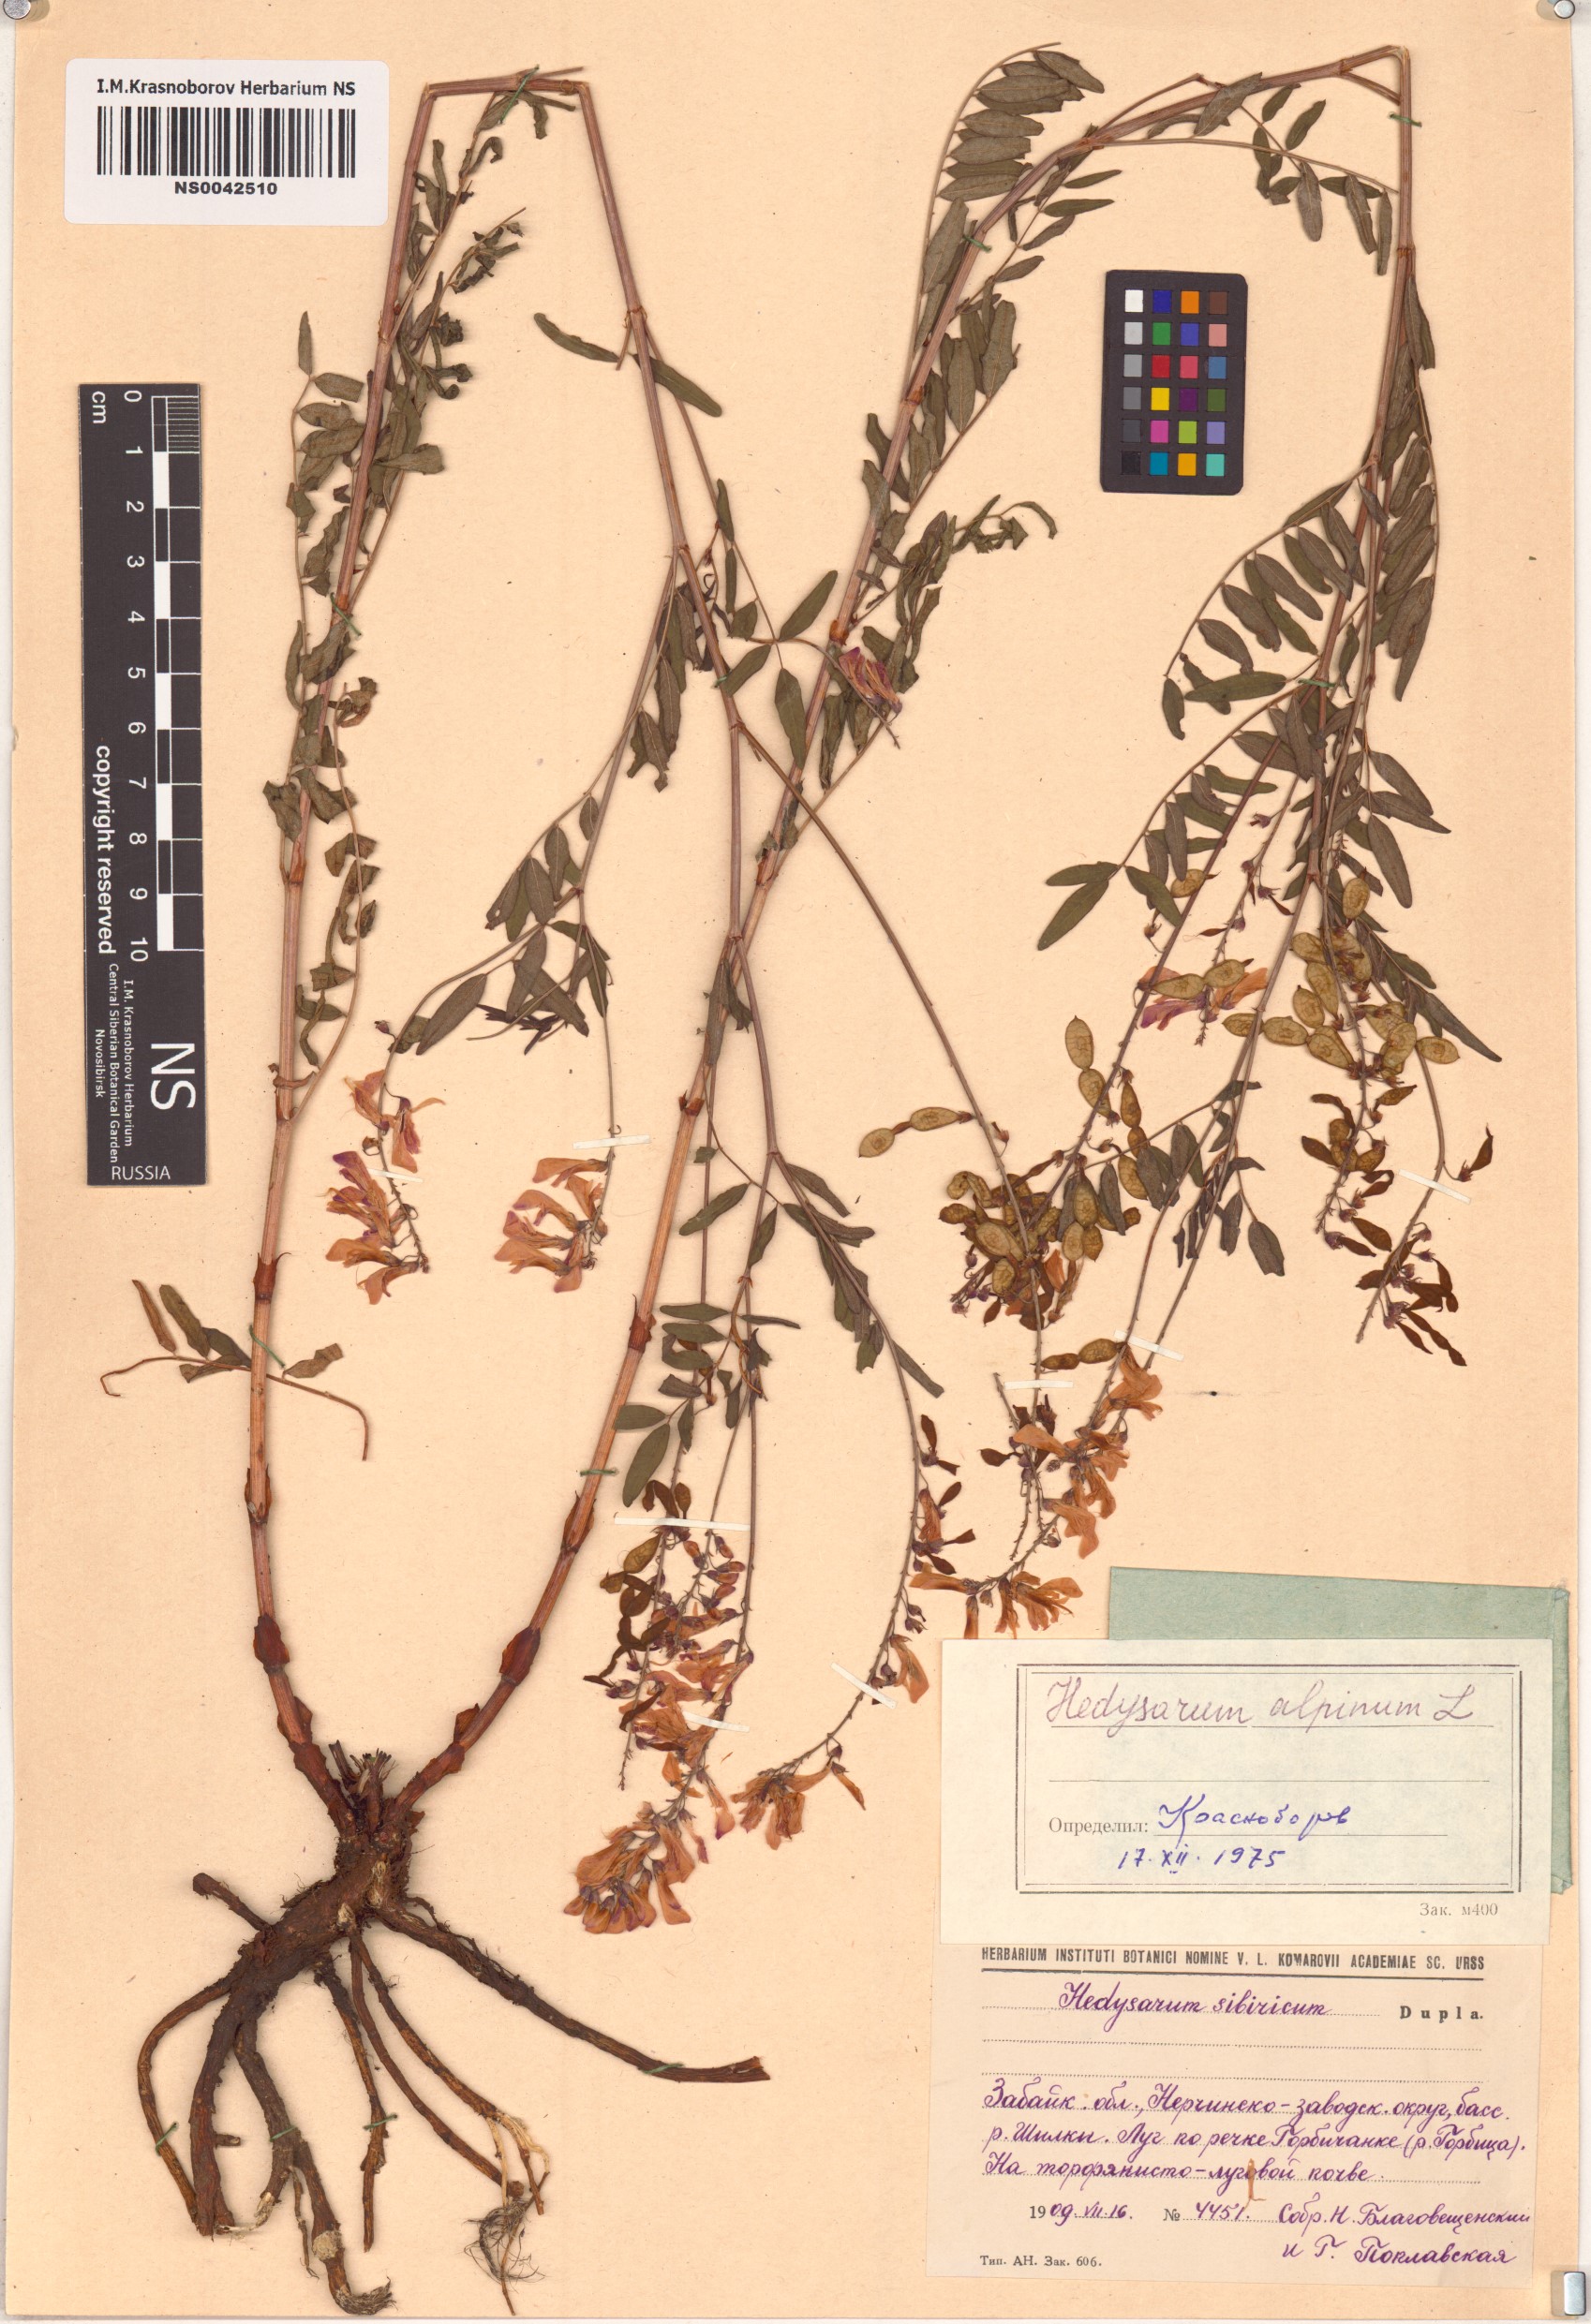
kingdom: Plantae
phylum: Tracheophyta
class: Magnoliopsida
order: Fabales
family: Fabaceae
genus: Hedysarum
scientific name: Hedysarum alpinum
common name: Alpine sweet-vetch
